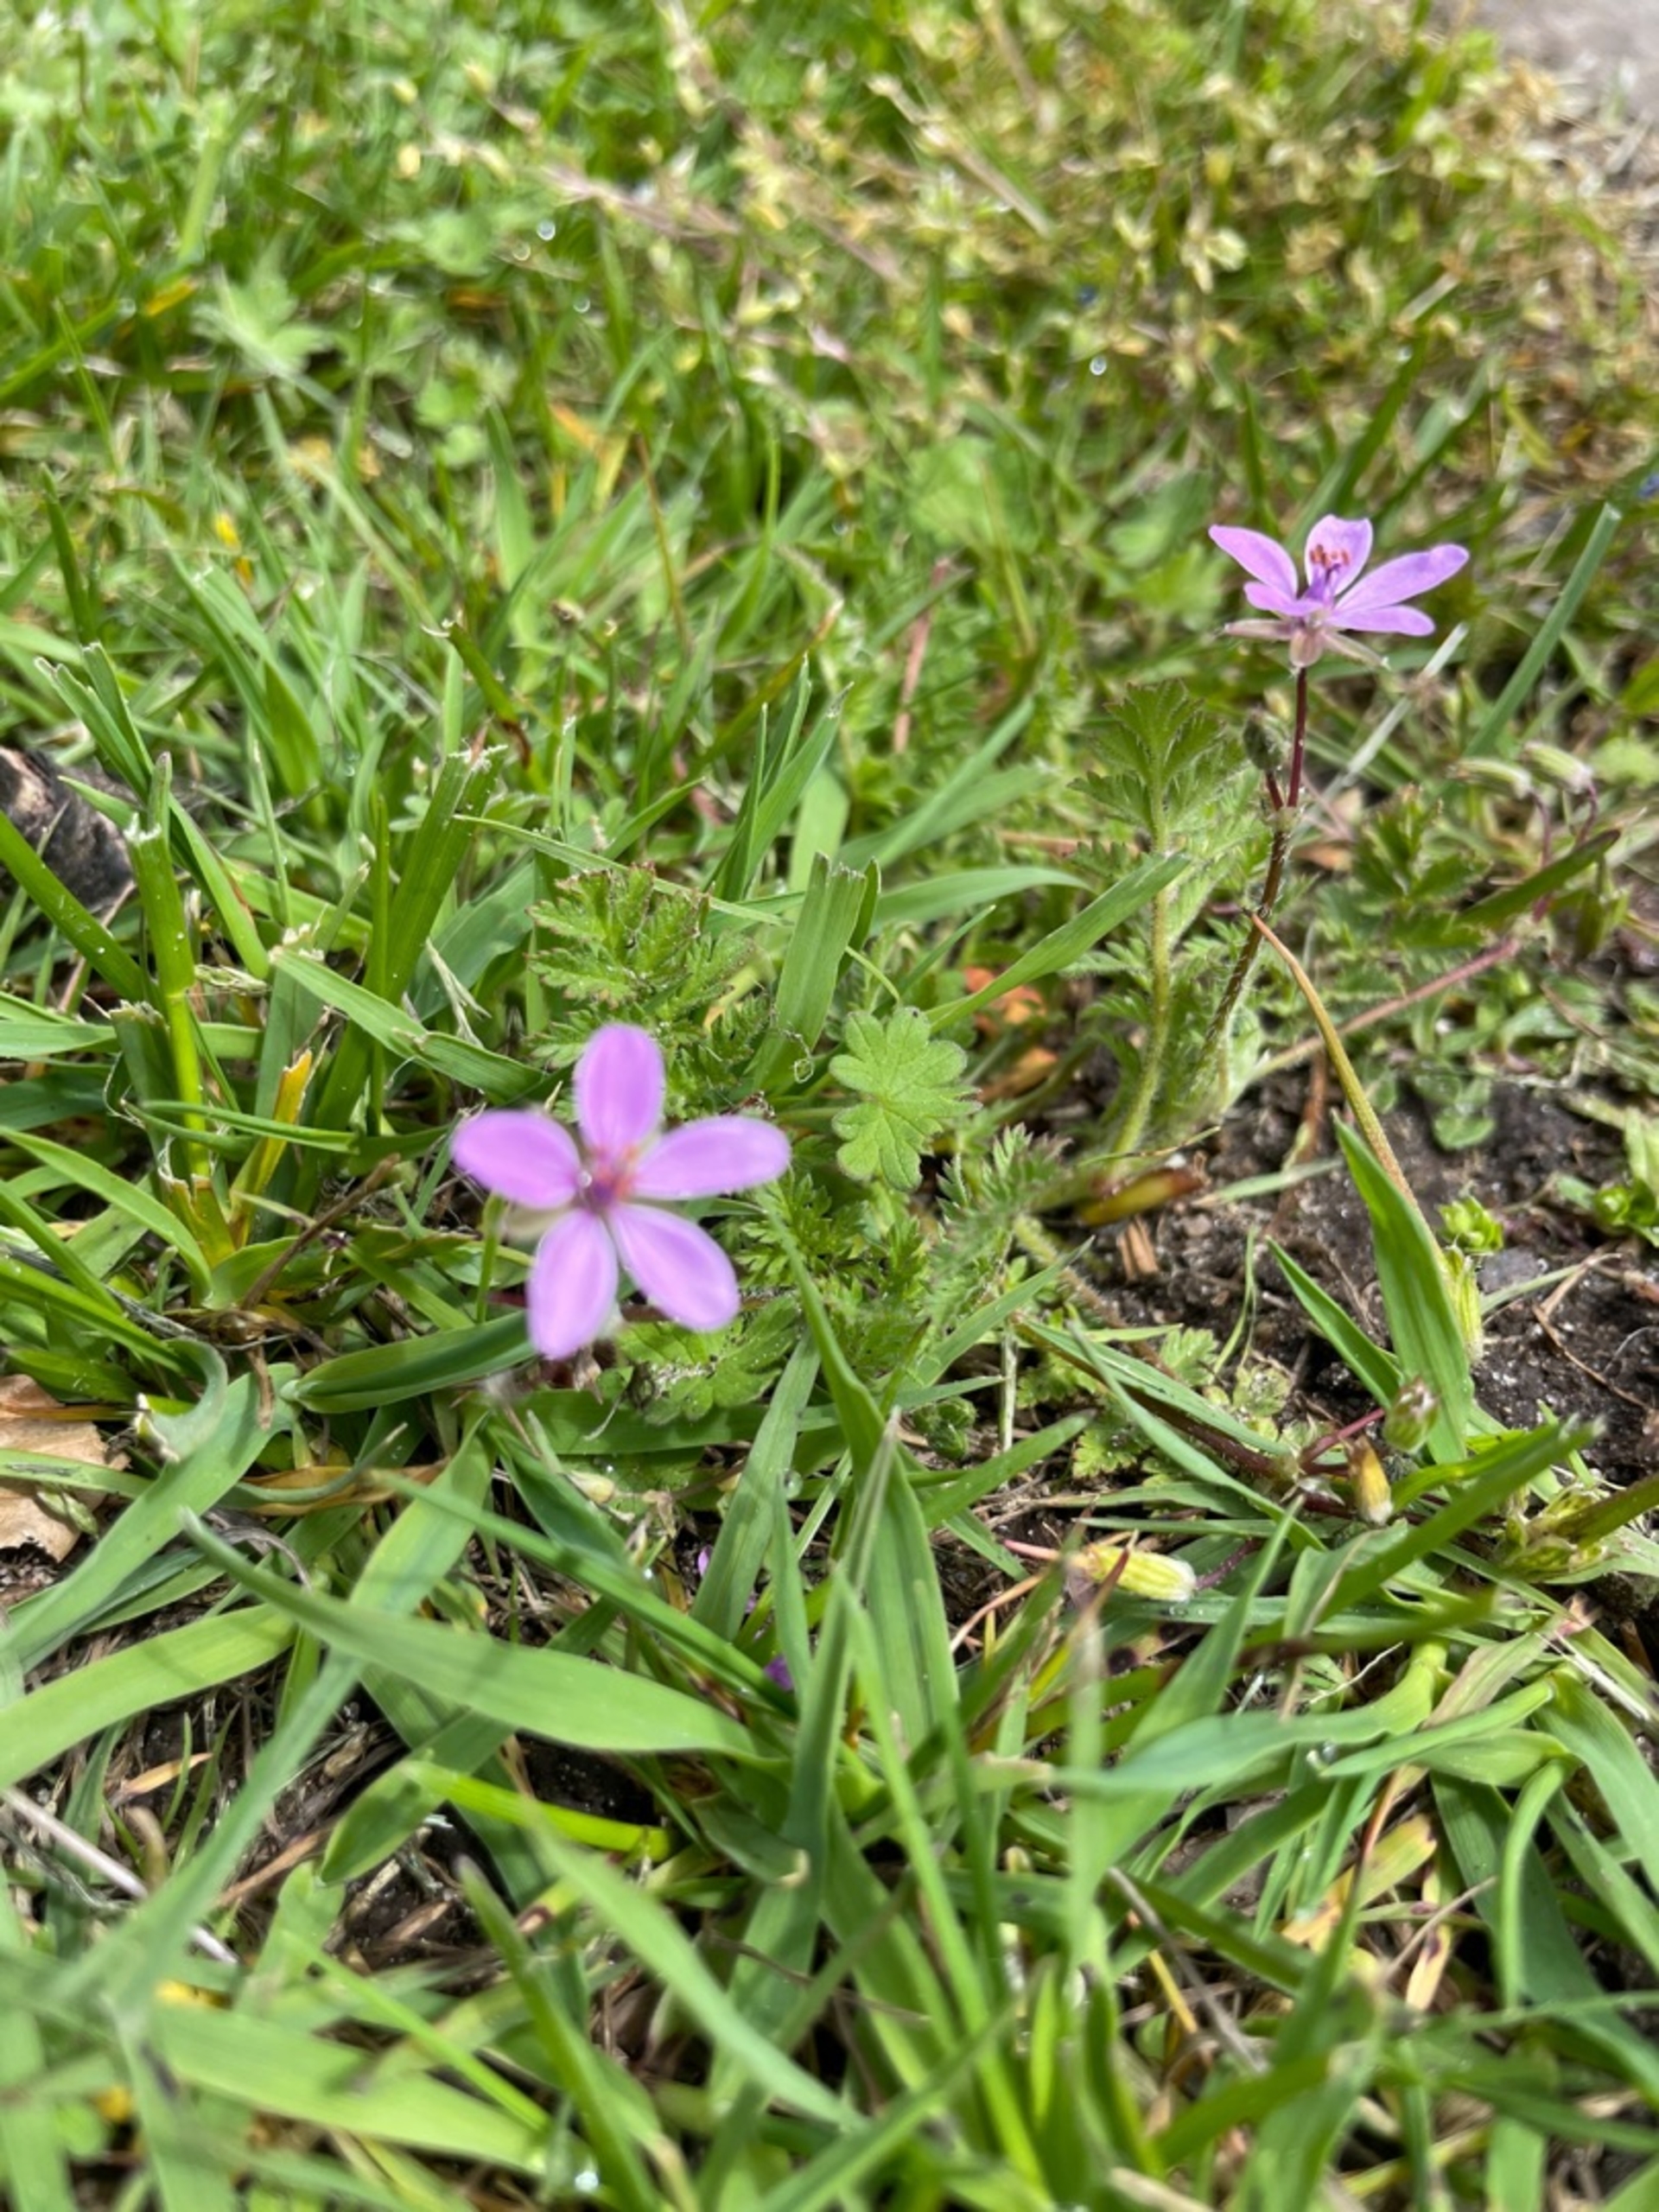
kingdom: Plantae
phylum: Tracheophyta
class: Magnoliopsida
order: Geraniales
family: Geraniaceae
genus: Erodium
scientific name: Erodium cicutarium
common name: Hejrenæb
